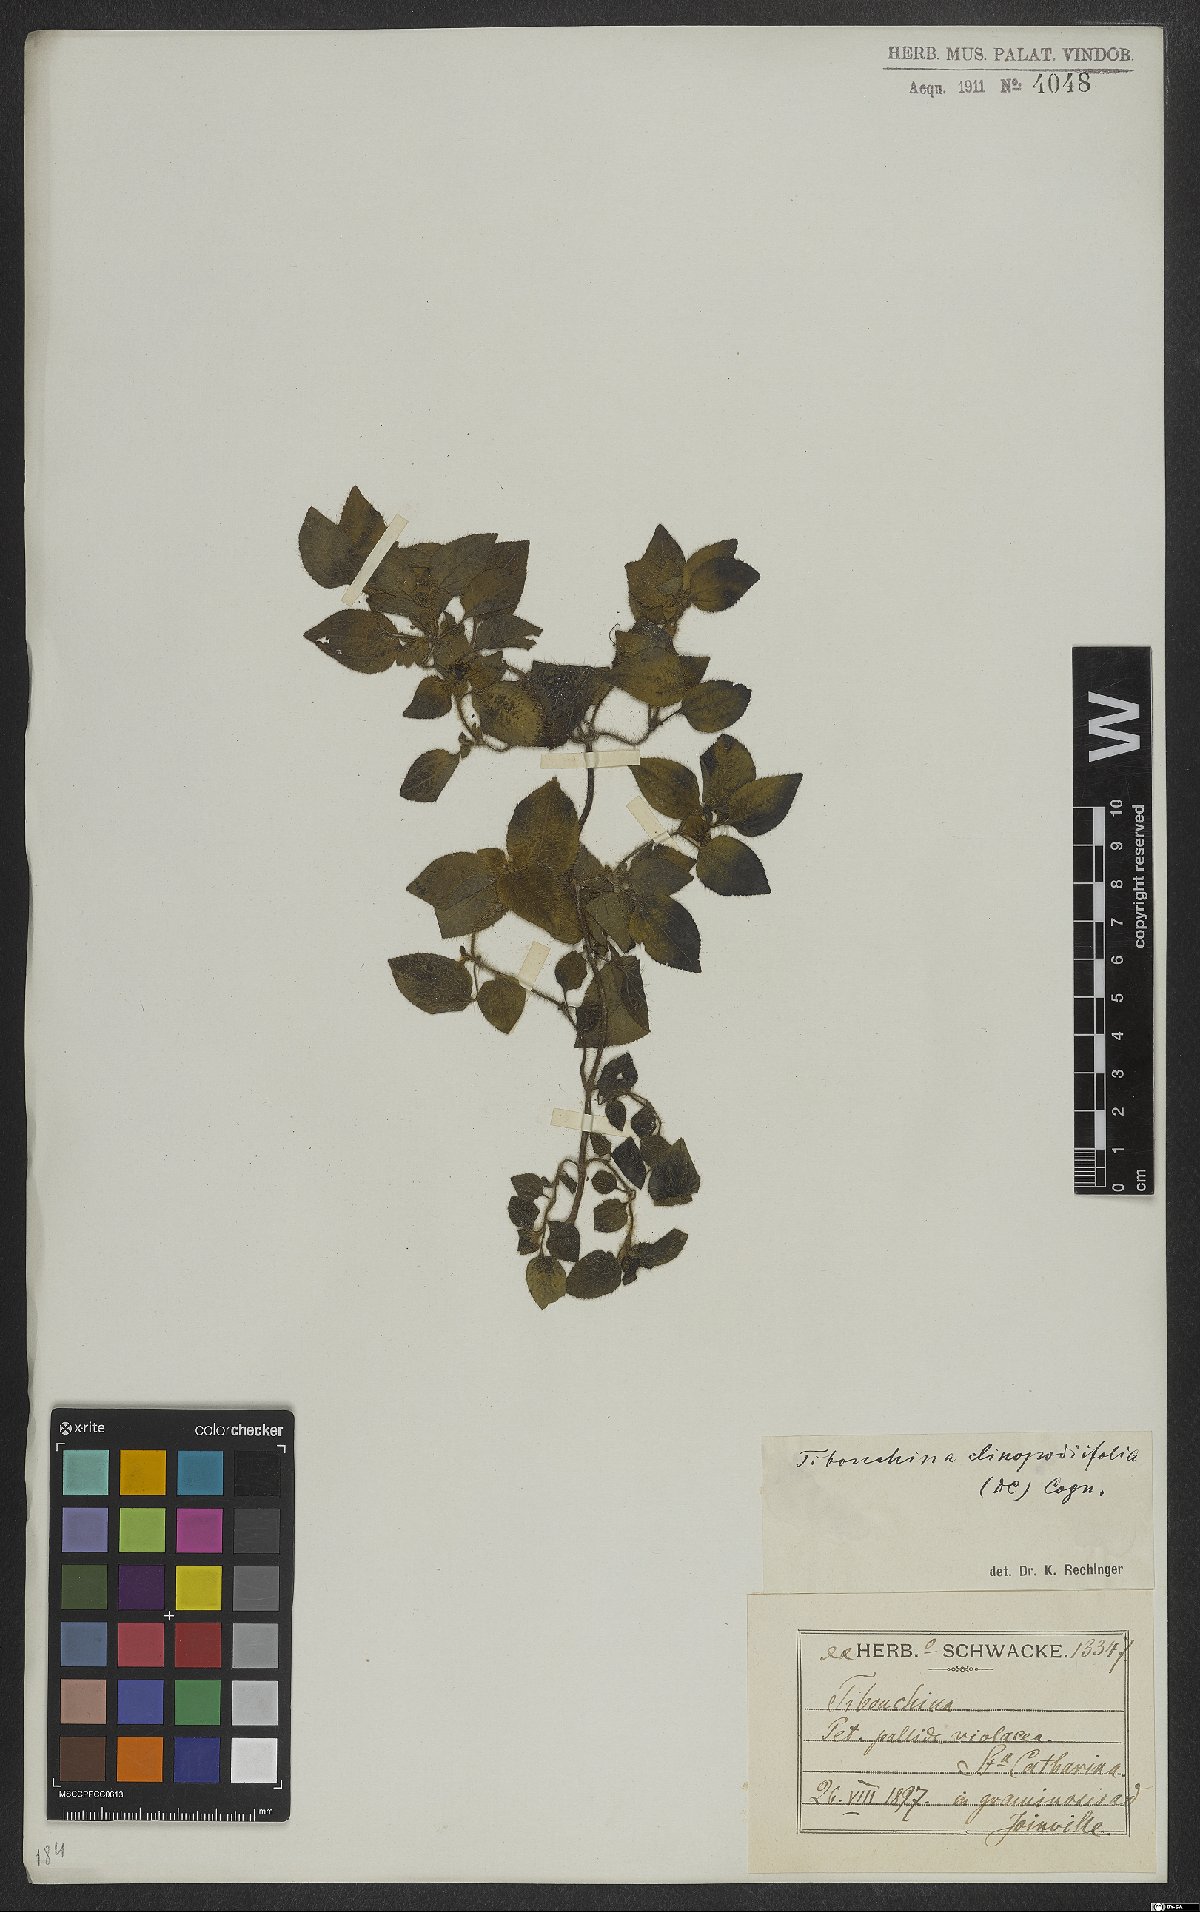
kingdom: Plantae
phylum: Tracheophyta
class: Magnoliopsida
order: Myrtales
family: Melastomataceae
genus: Chaetogastra
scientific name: Chaetogastra clinopodifolia
